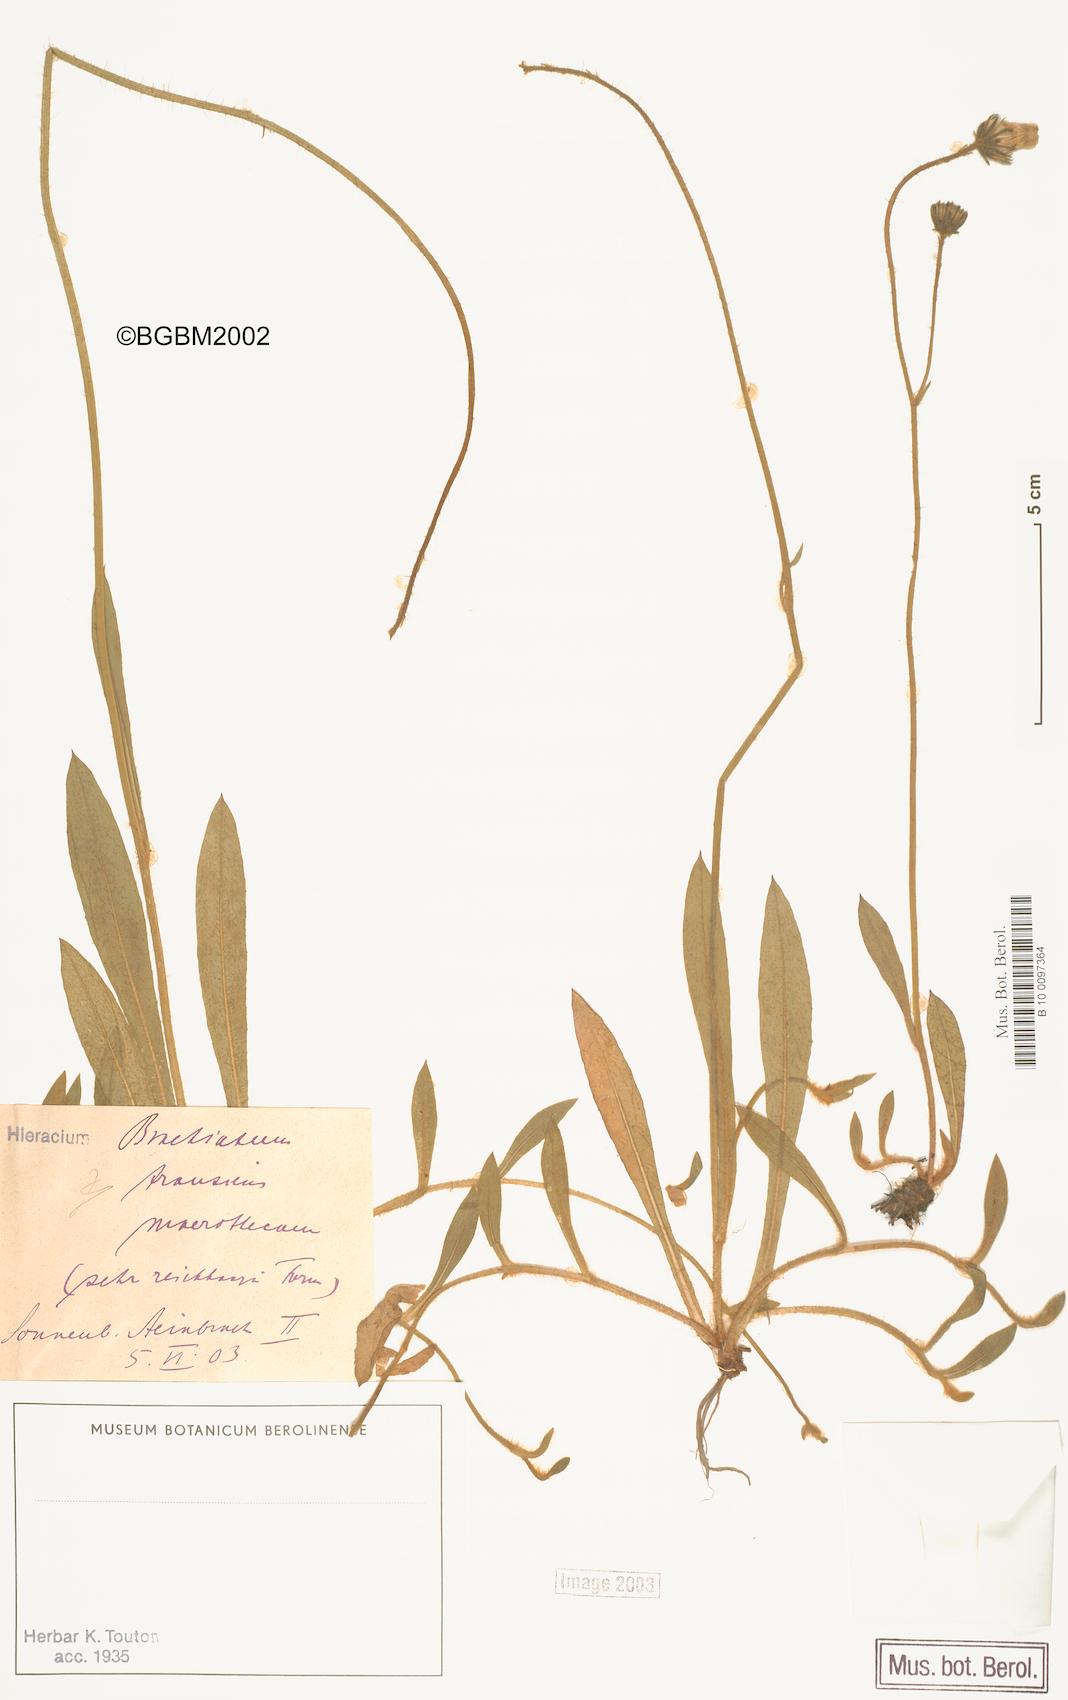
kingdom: Plantae
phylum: Tracheophyta
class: Magnoliopsida
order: Asterales
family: Asteraceae
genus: Pilosella
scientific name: Pilosella acutifolia
